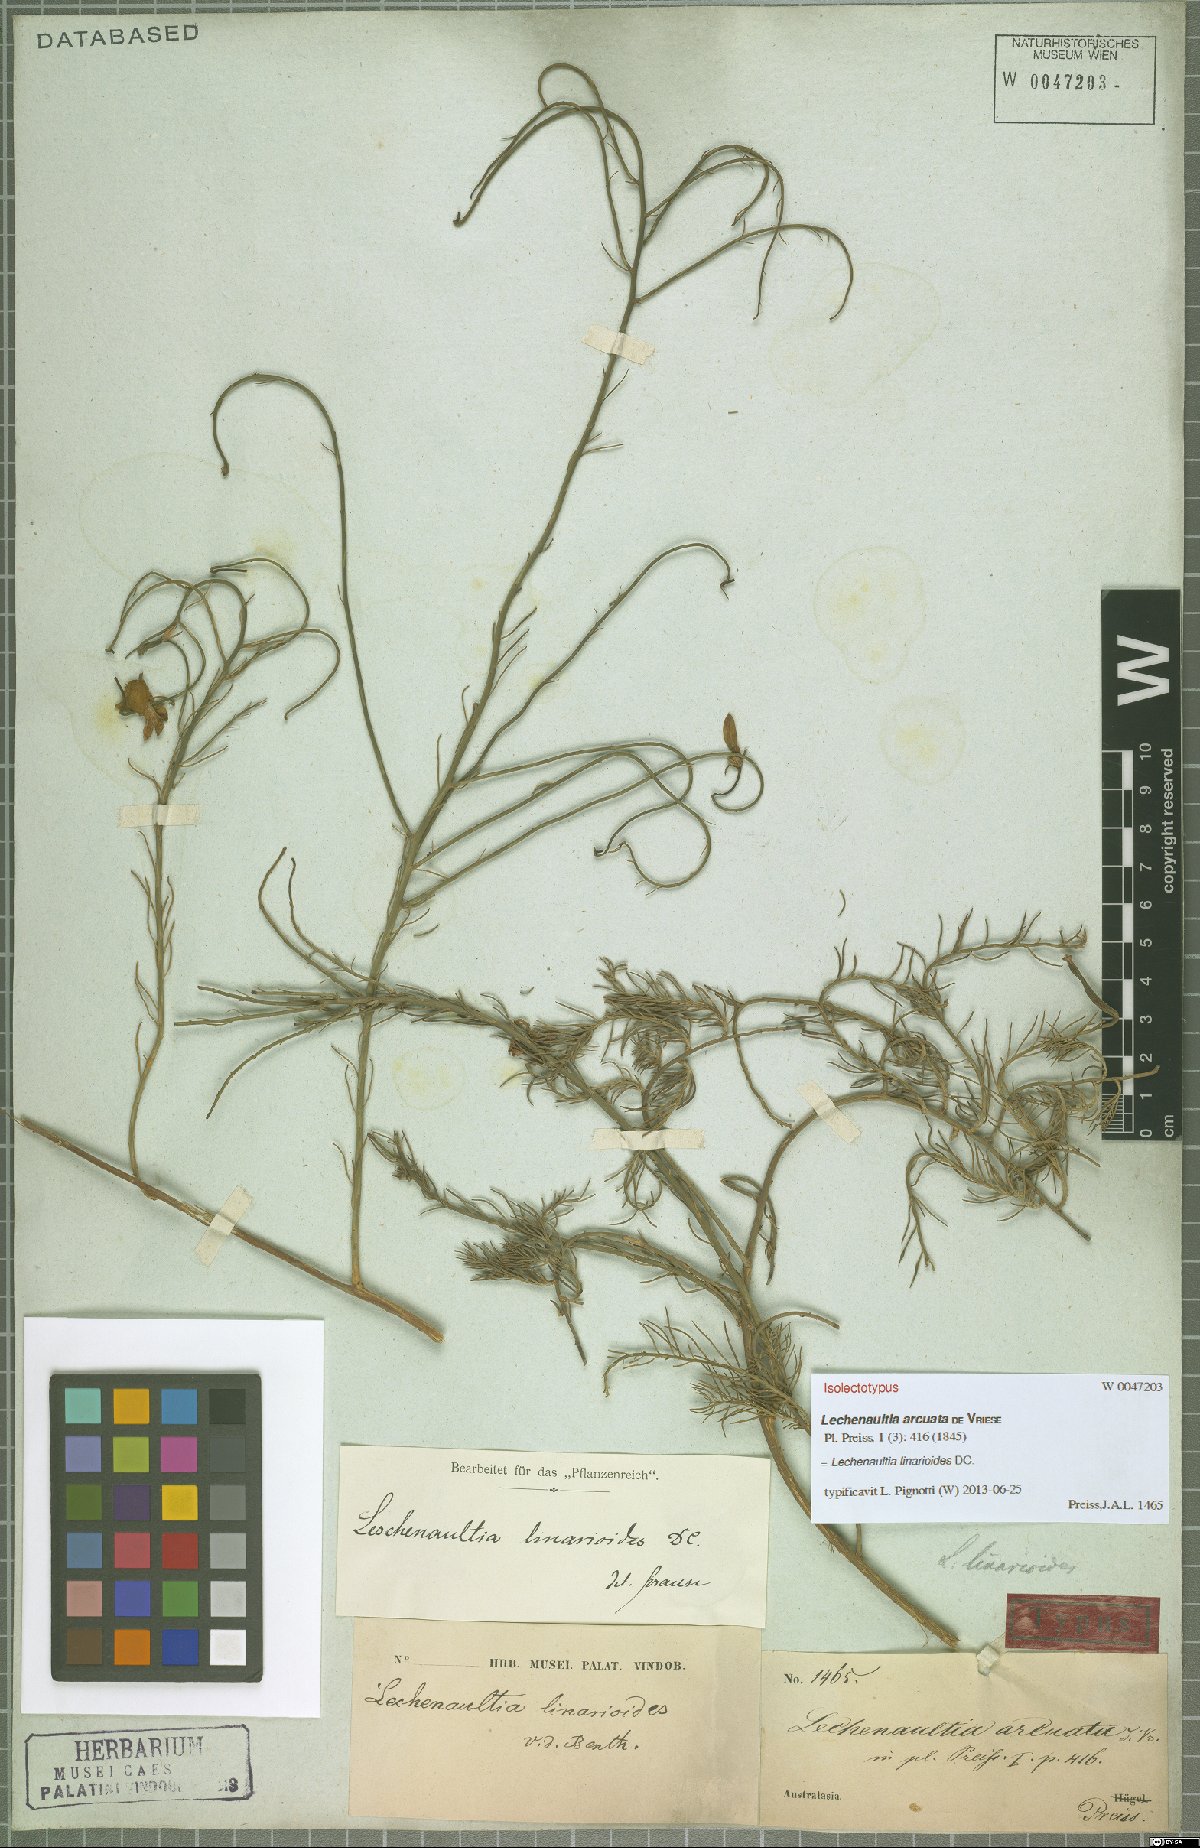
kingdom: Plantae
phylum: Tracheophyta
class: Magnoliopsida
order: Asterales
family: Goodeniaceae
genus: Lechenaultia
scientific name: Lechenaultia linarioides
